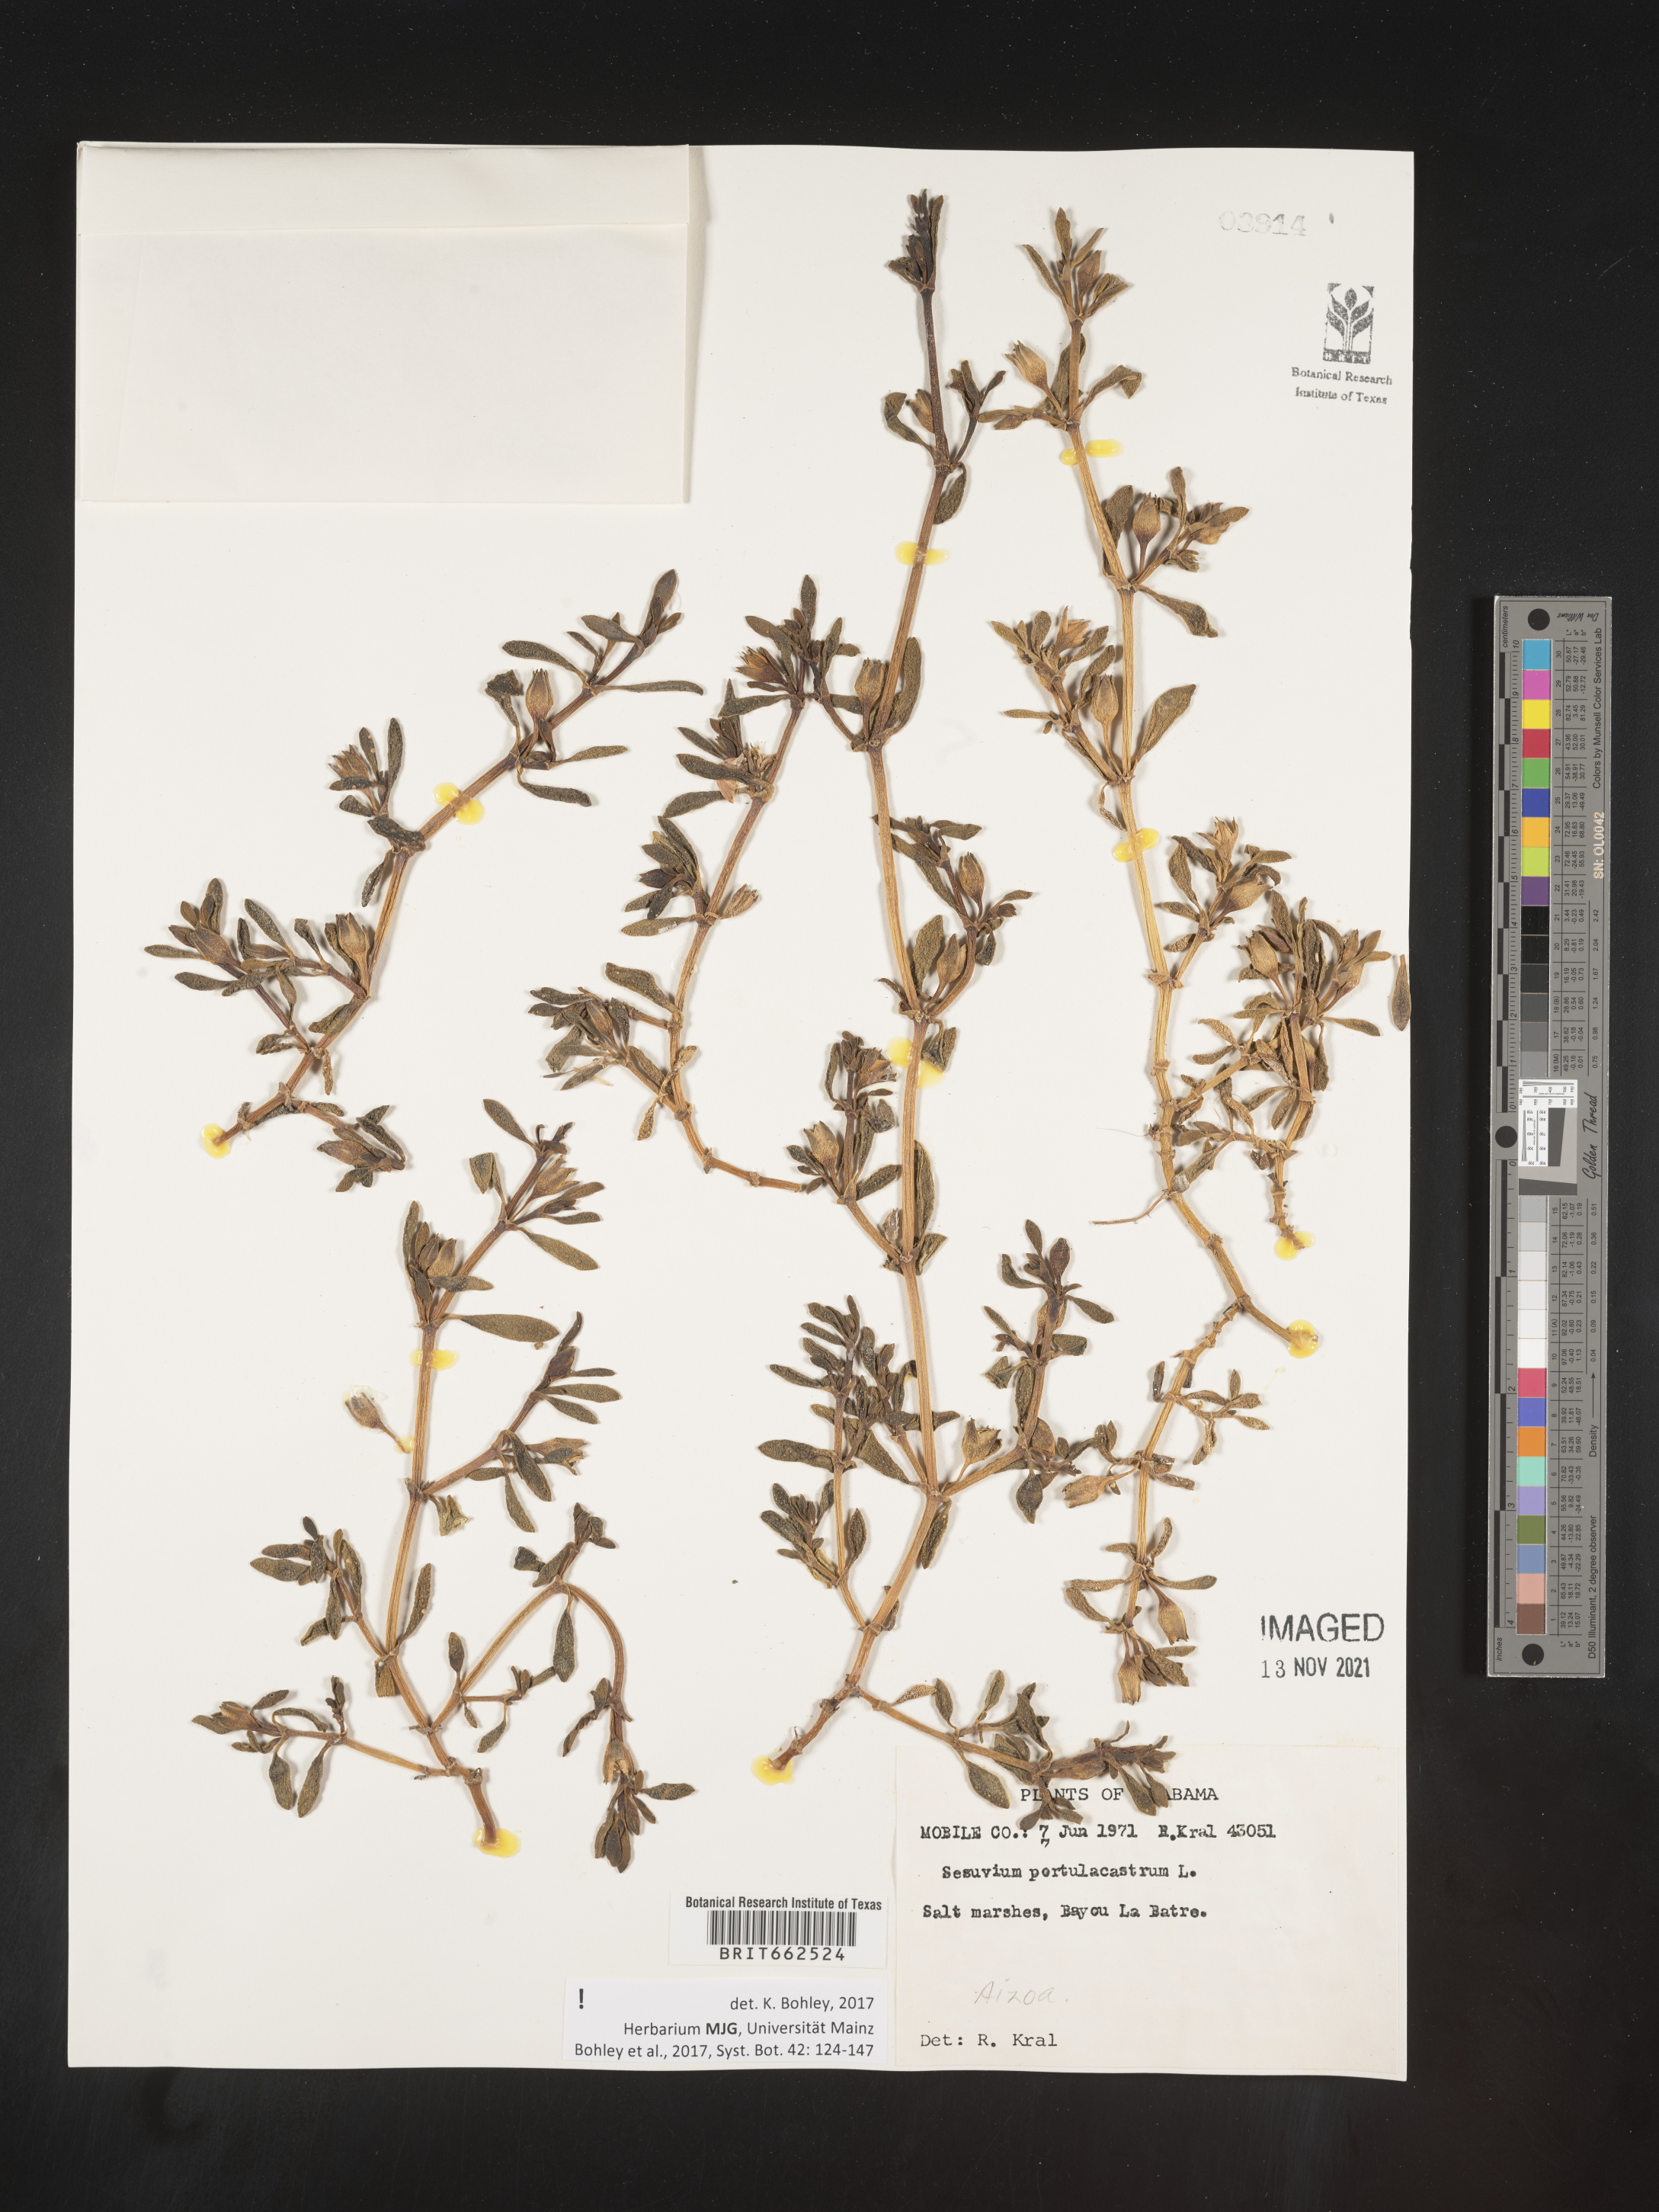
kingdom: Plantae
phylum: Tracheophyta
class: Magnoliopsida
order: Caryophyllales
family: Aizoaceae
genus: Sesuvium
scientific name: Sesuvium portulacastrum
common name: Sea-purslane
